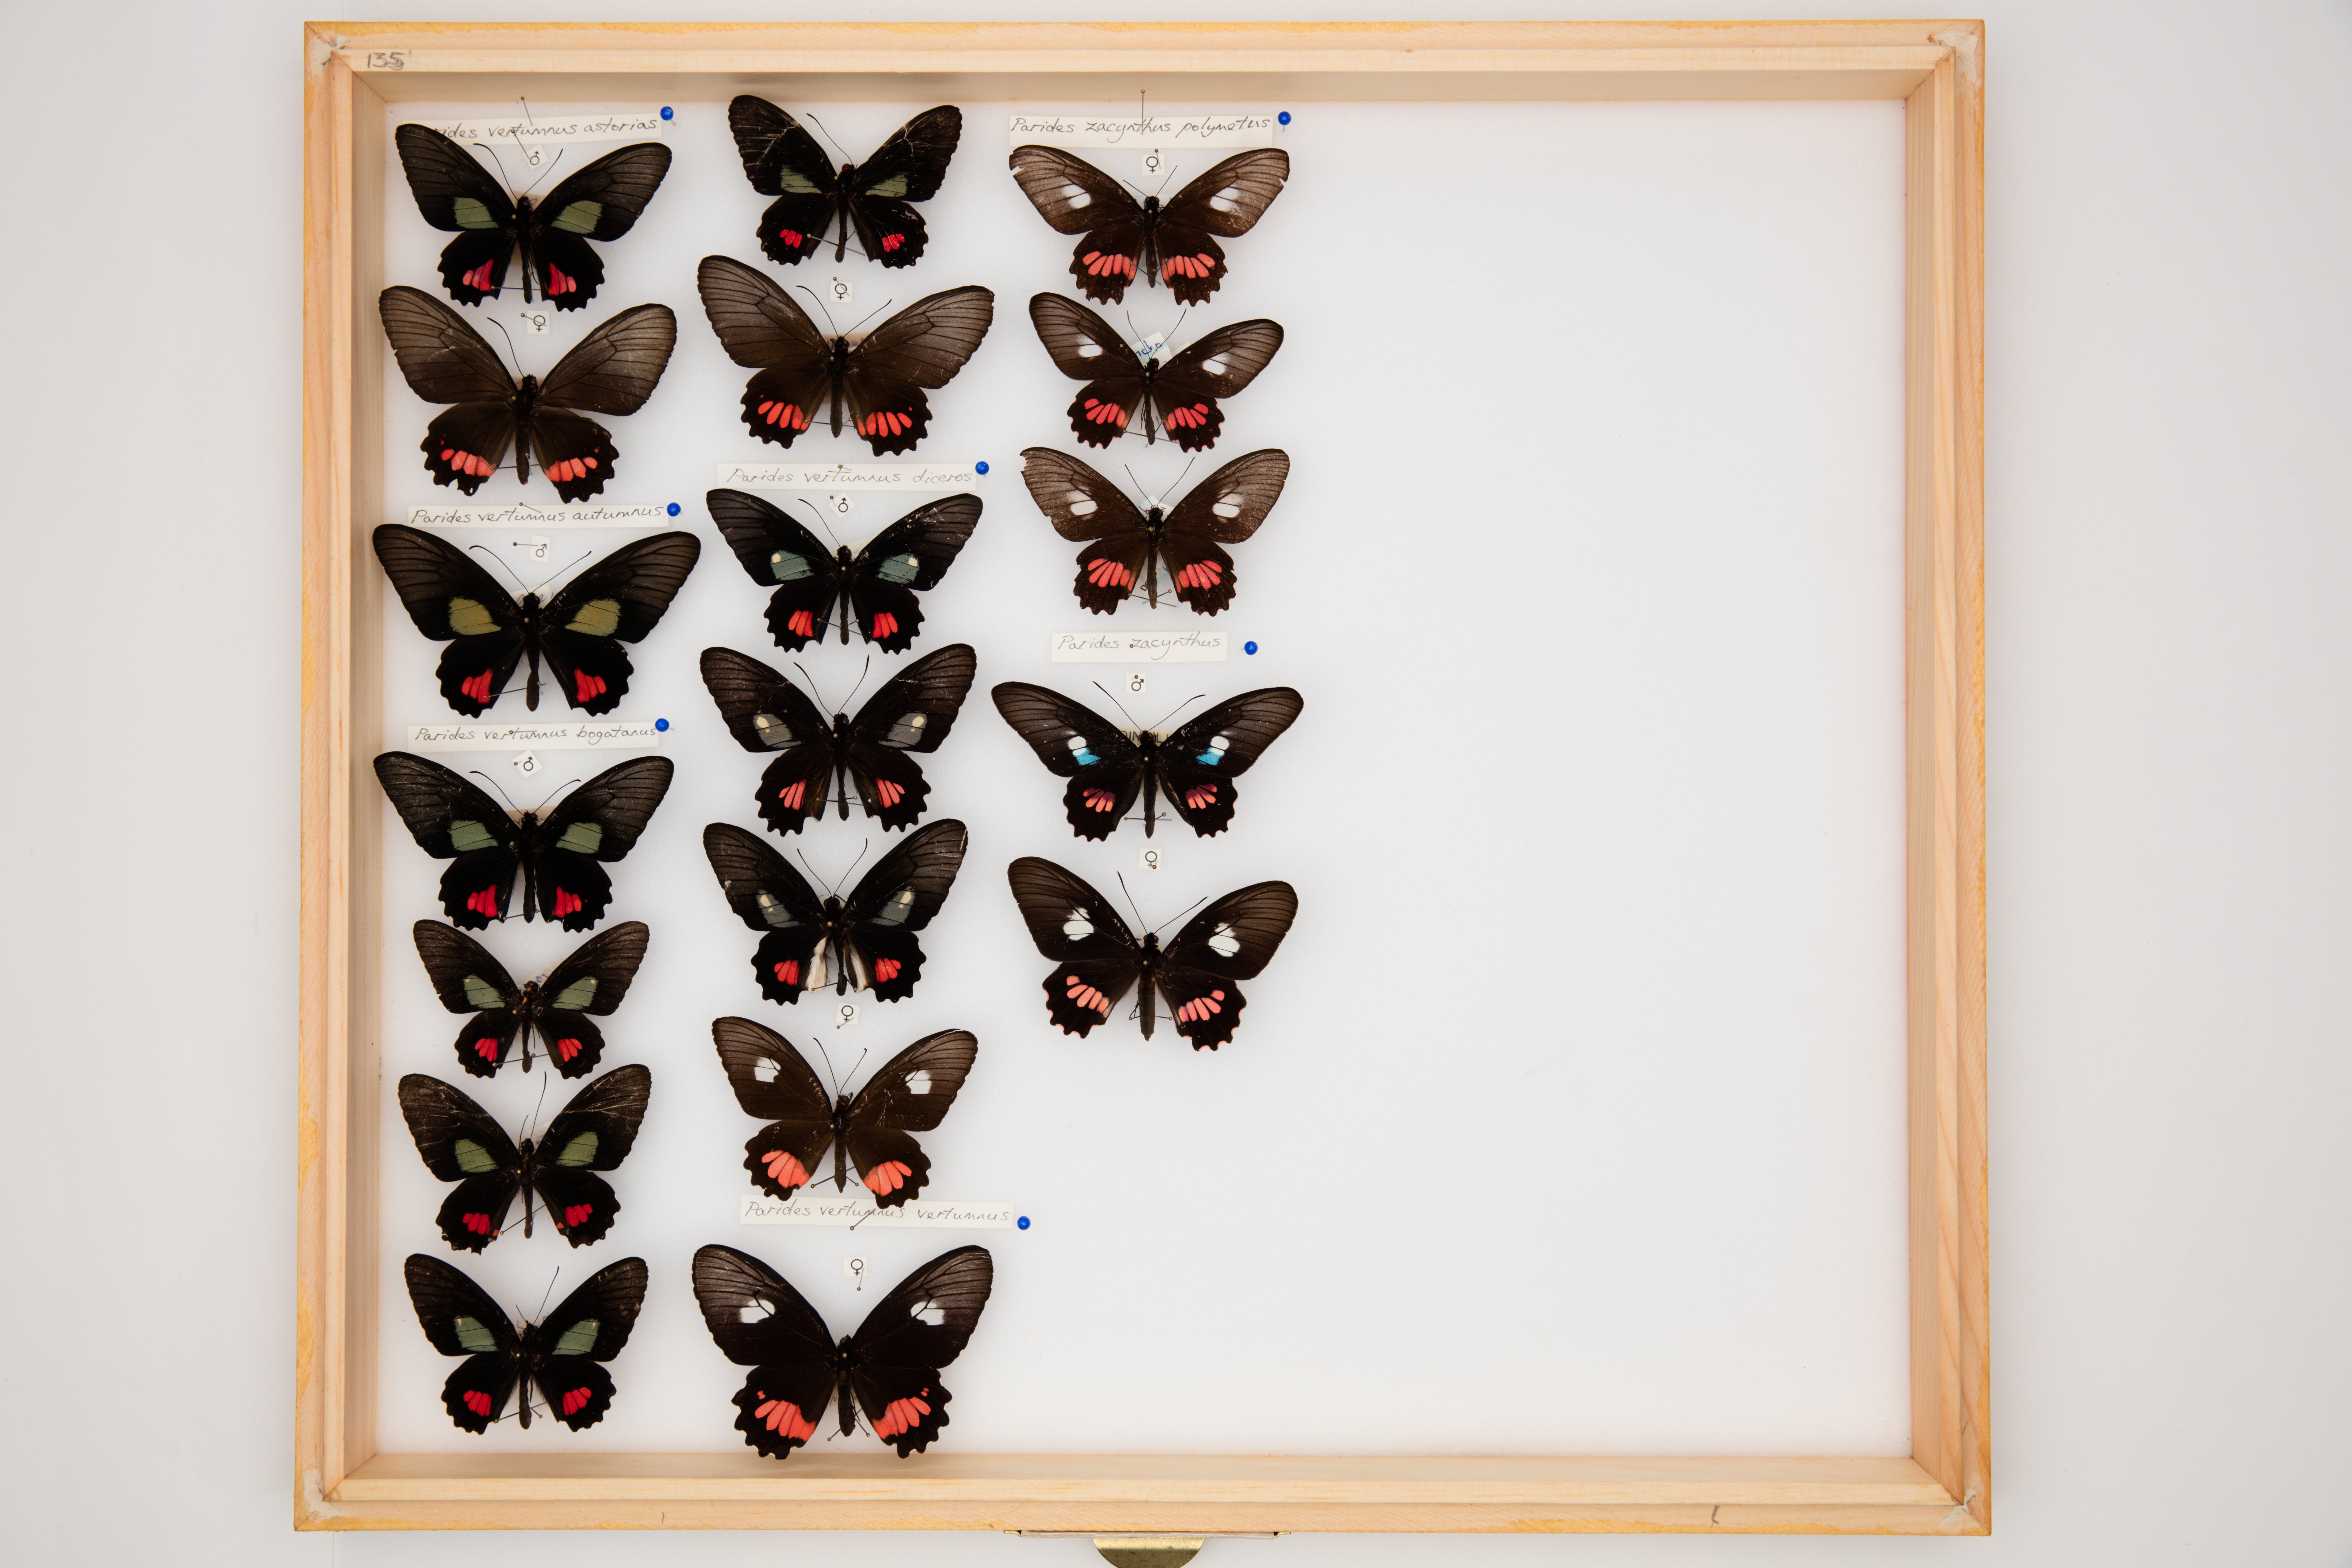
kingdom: Animalia
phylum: Arthropoda
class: Insecta
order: Lepidoptera
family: Papilionidae
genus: Parides
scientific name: Parides vertumnus
